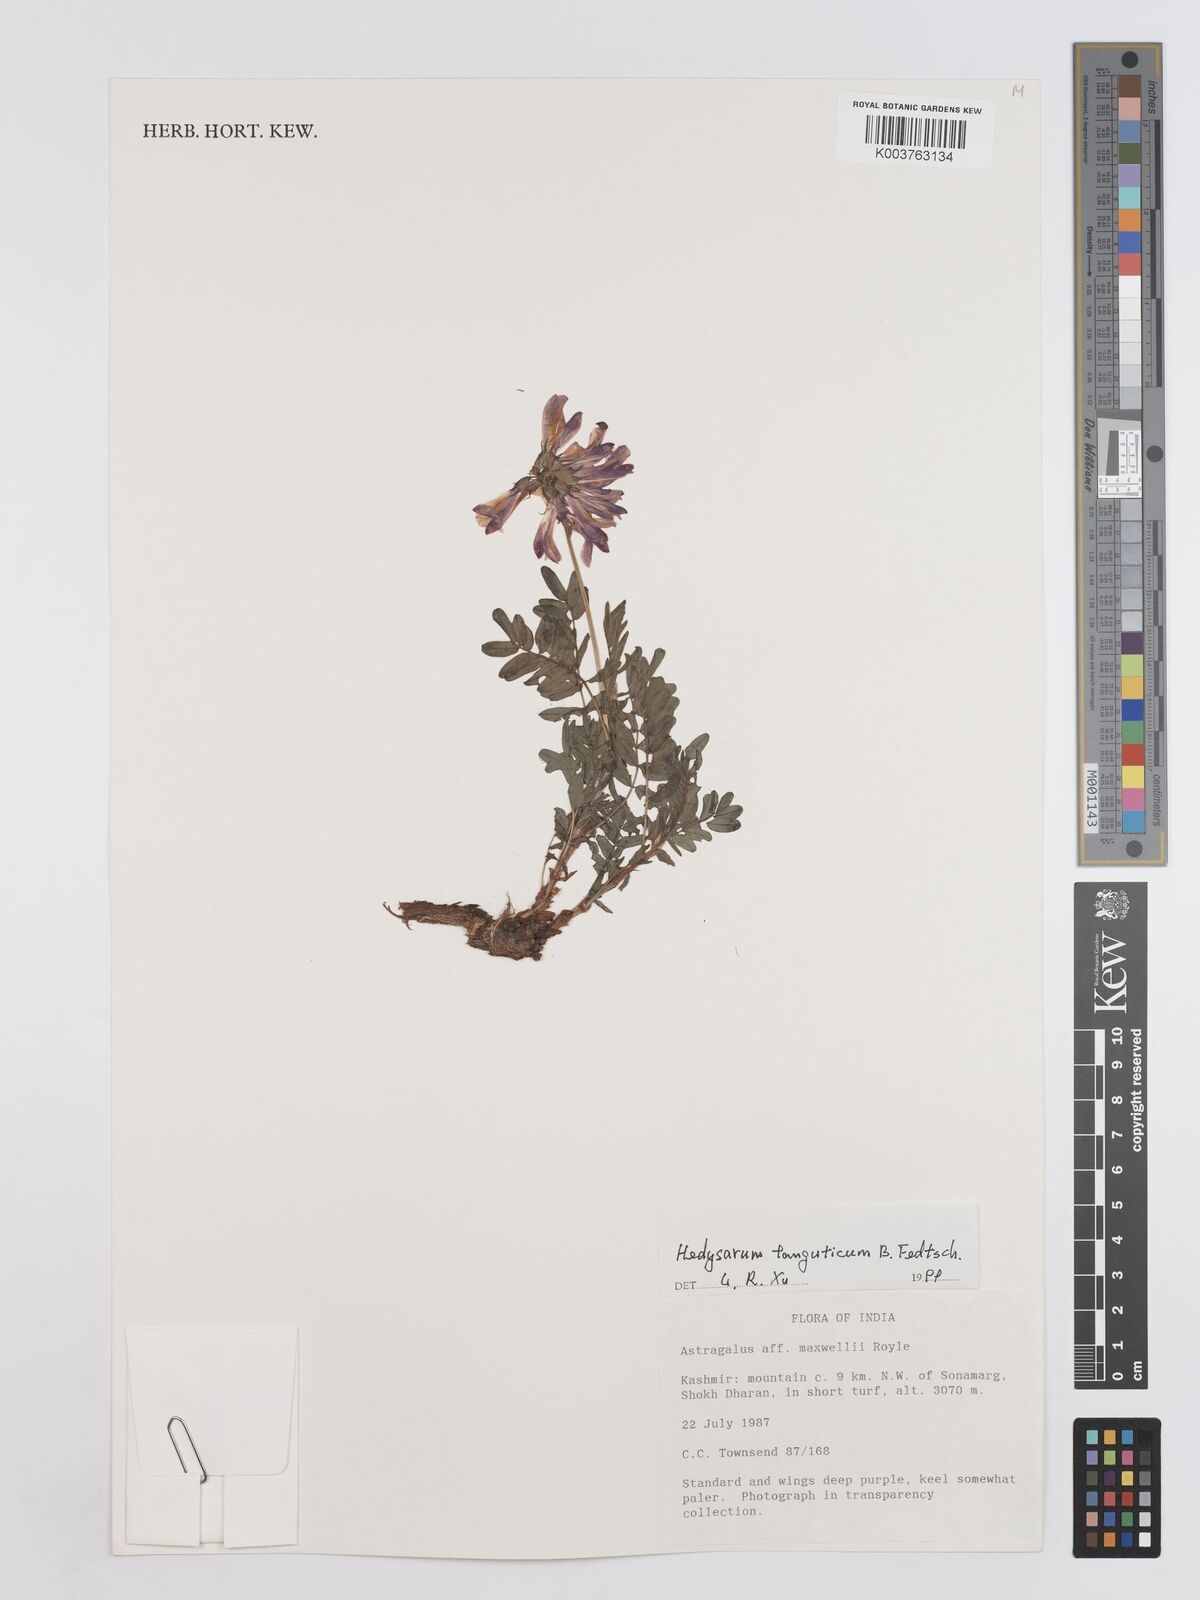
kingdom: Plantae
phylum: Tracheophyta
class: Magnoliopsida
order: Fabales
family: Fabaceae
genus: Hedysarum
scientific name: Hedysarum tanguticum
